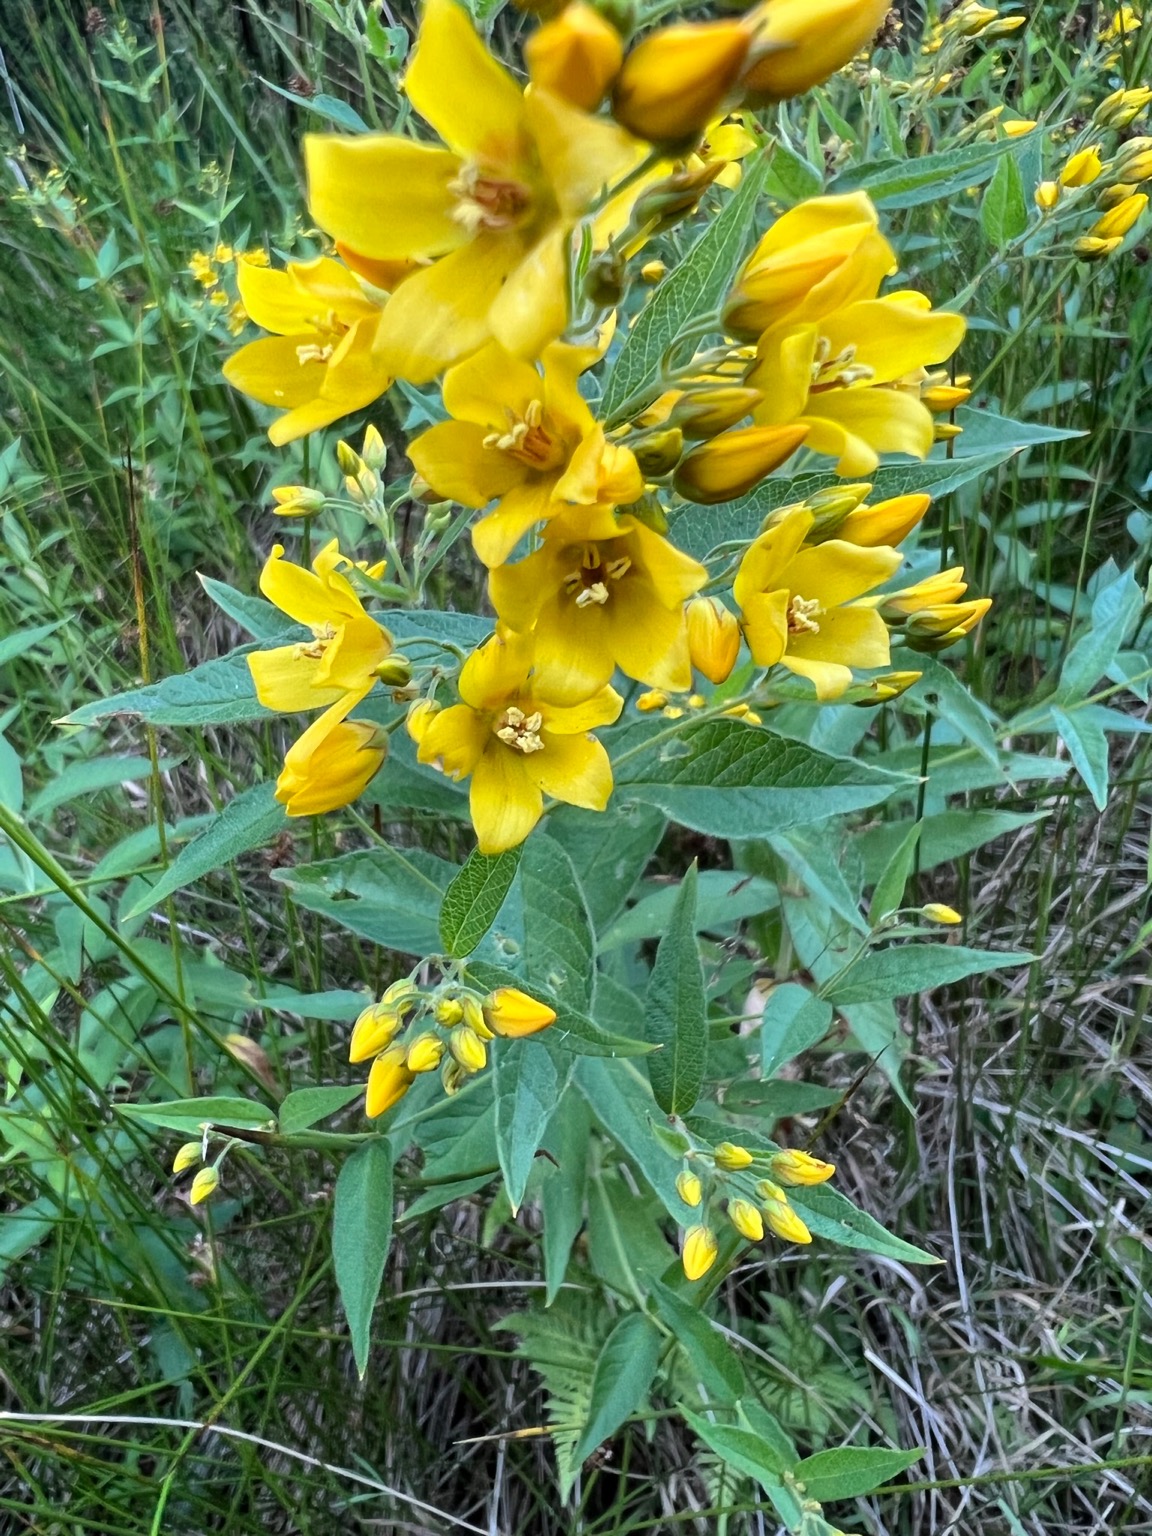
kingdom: Plantae
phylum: Tracheophyta
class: Magnoliopsida
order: Ericales
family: Primulaceae
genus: Lysimachia
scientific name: Lysimachia vulgaris
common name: Almindelig fredløs
